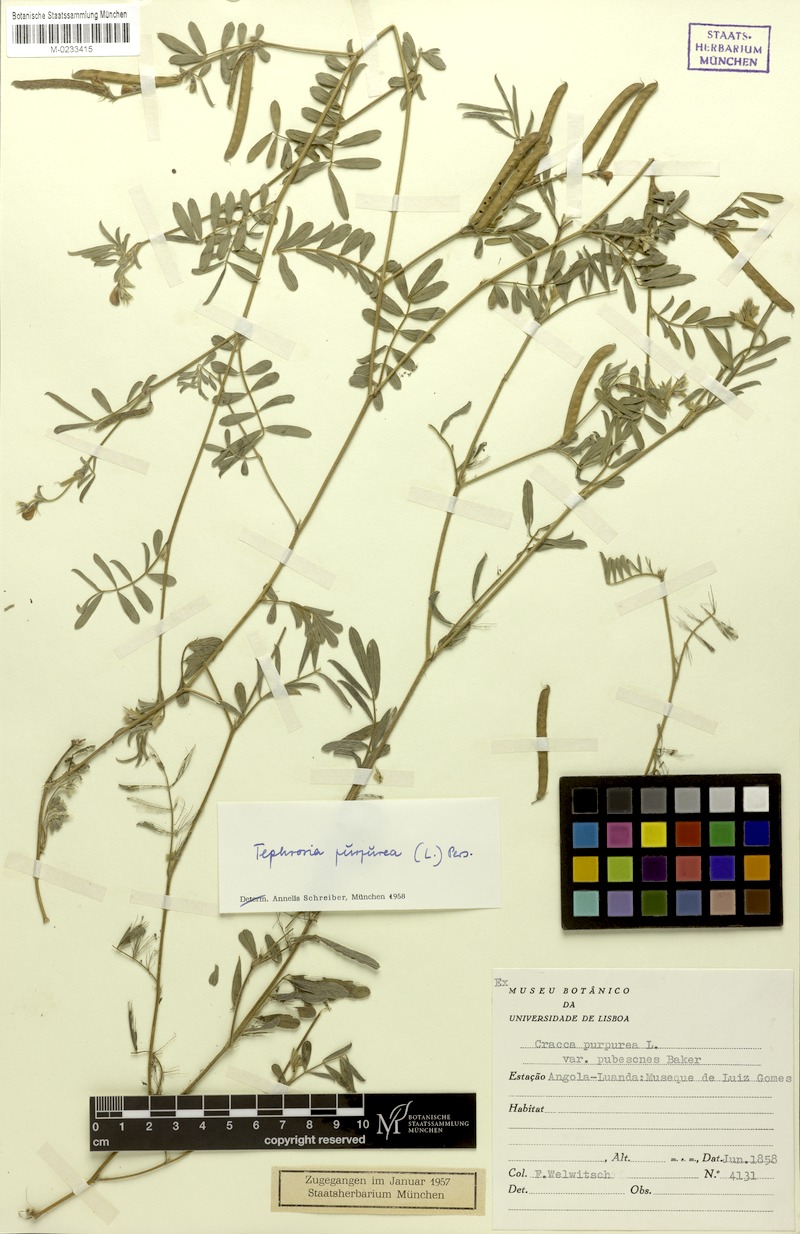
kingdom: Plantae
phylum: Tracheophyta
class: Magnoliopsida
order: Fabales
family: Fabaceae
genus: Tephrosia
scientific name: Tephrosia purpurea
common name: Fishpoison
